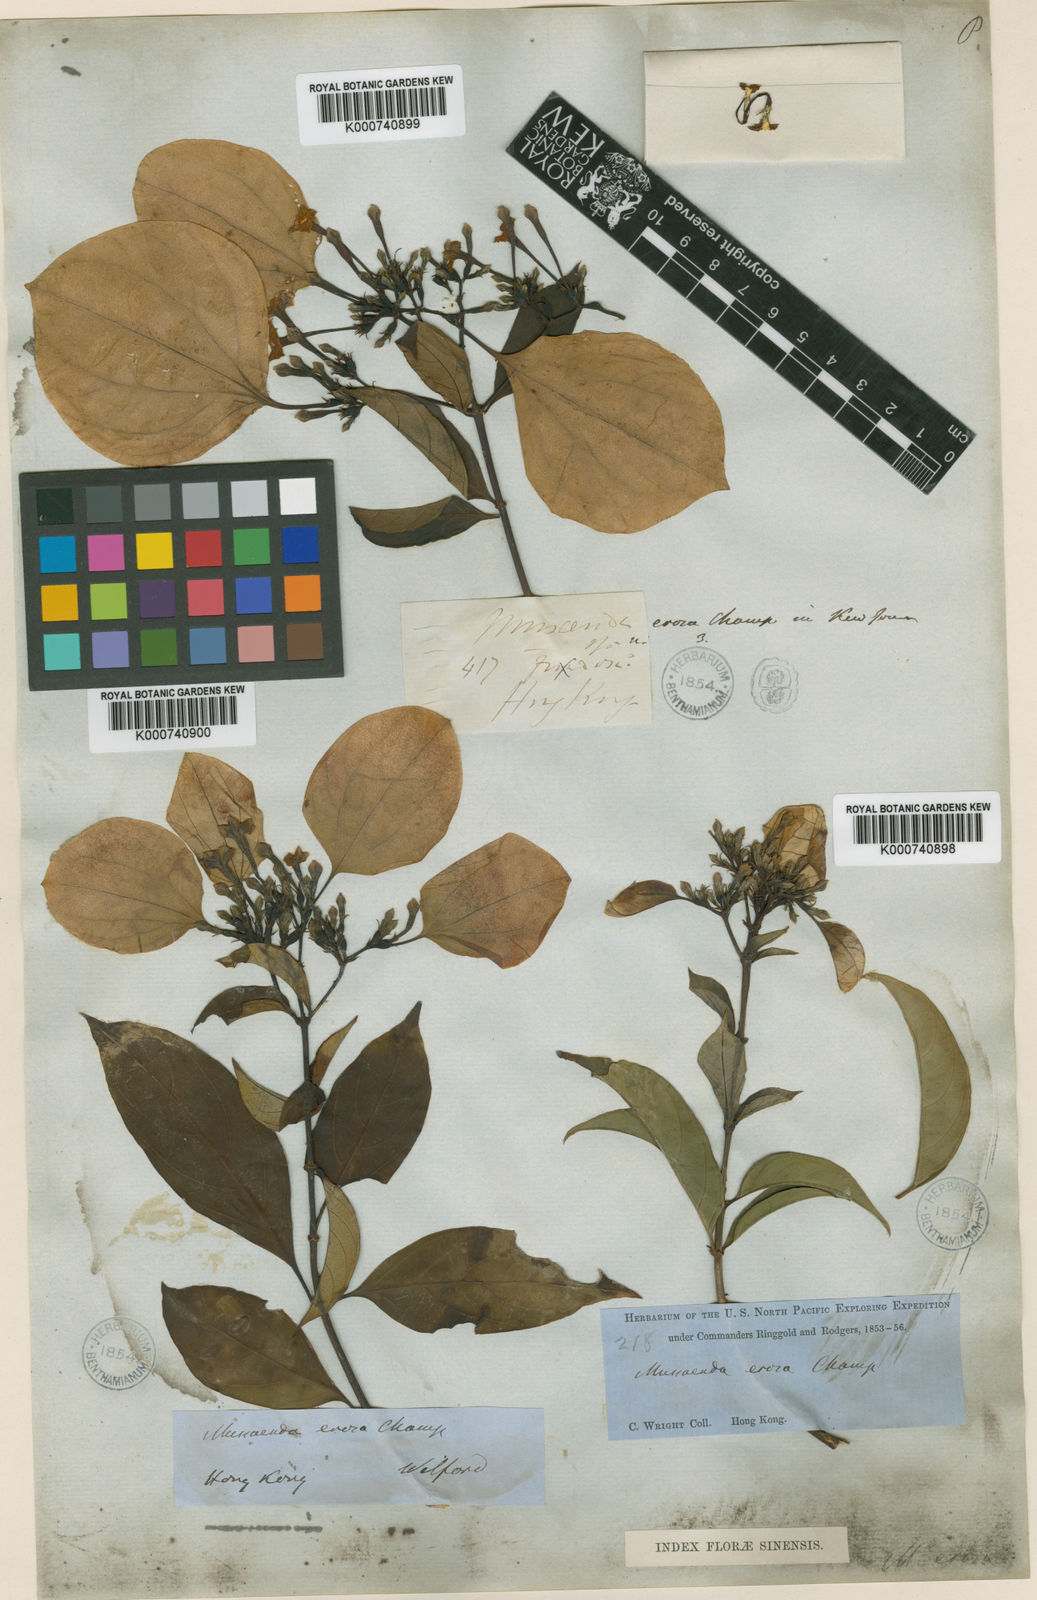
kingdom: Plantae
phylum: Tracheophyta
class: Magnoliopsida
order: Gentianales
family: Rubiaceae
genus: Mussaenda
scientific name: Mussaenda erosa
